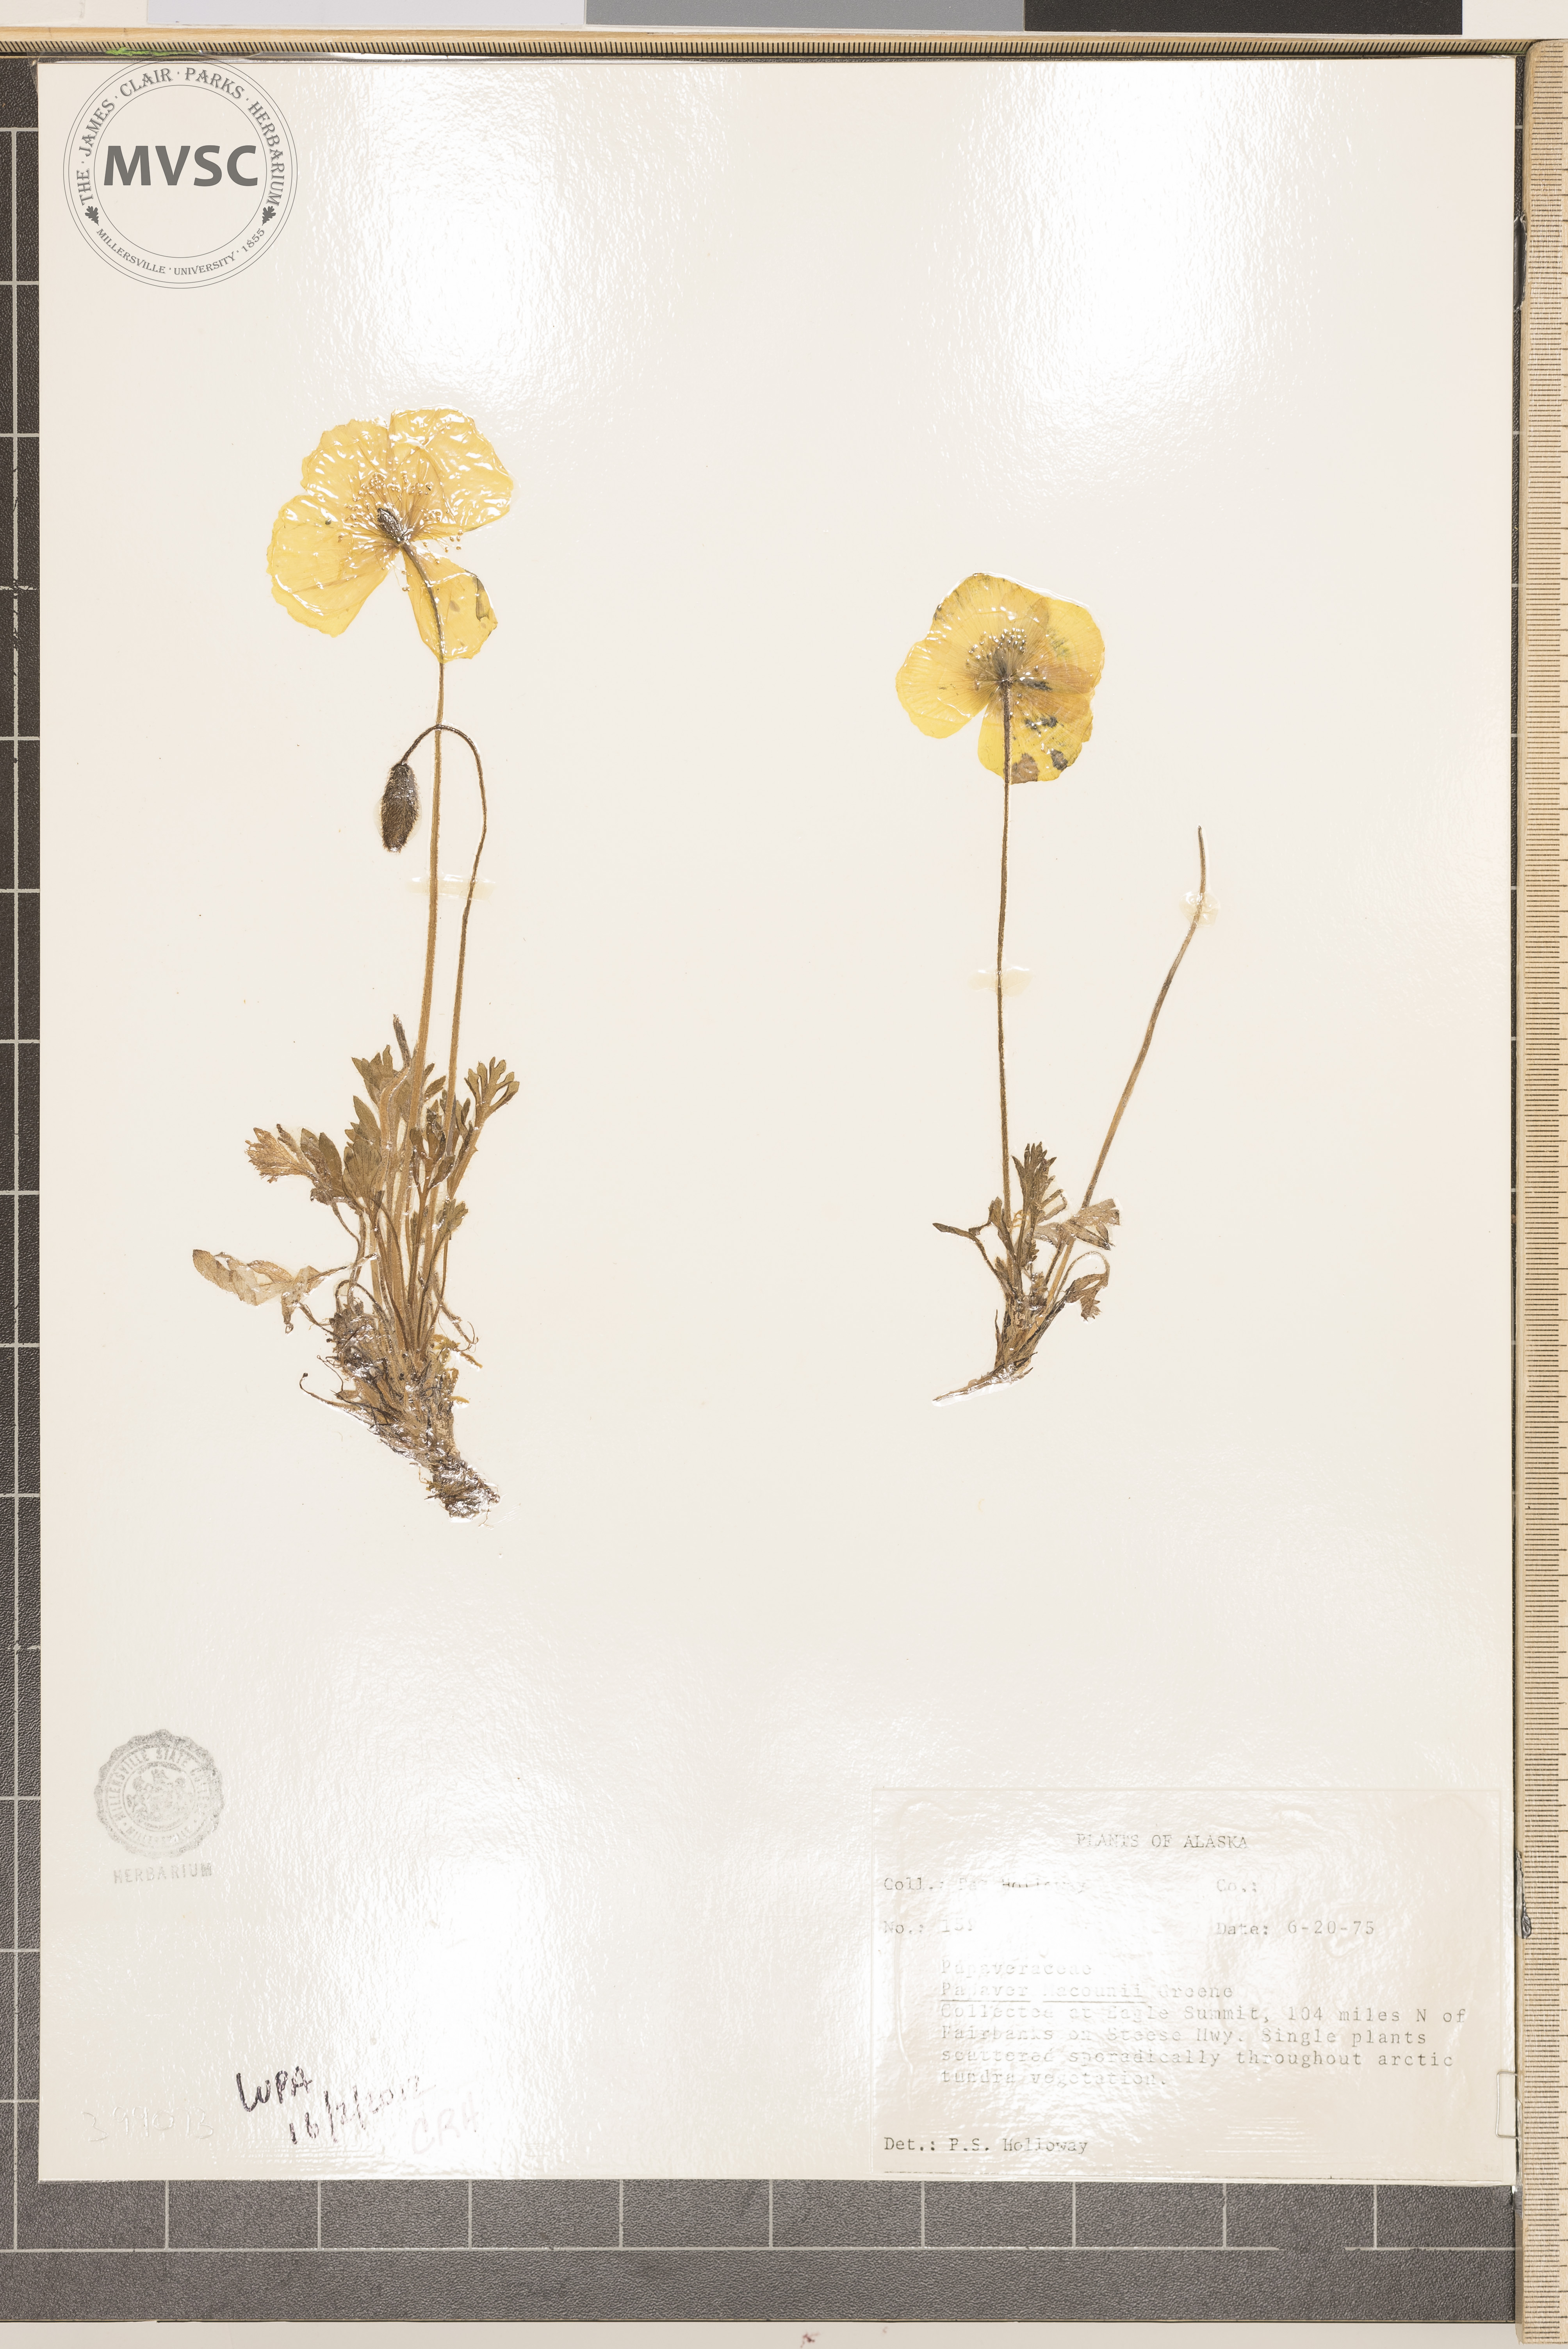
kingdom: Plantae
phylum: Tracheophyta
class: Magnoliopsida
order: Ranunculales
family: Papaveraceae
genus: Papaver
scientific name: Papaver macounii
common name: Long-pod poppy
